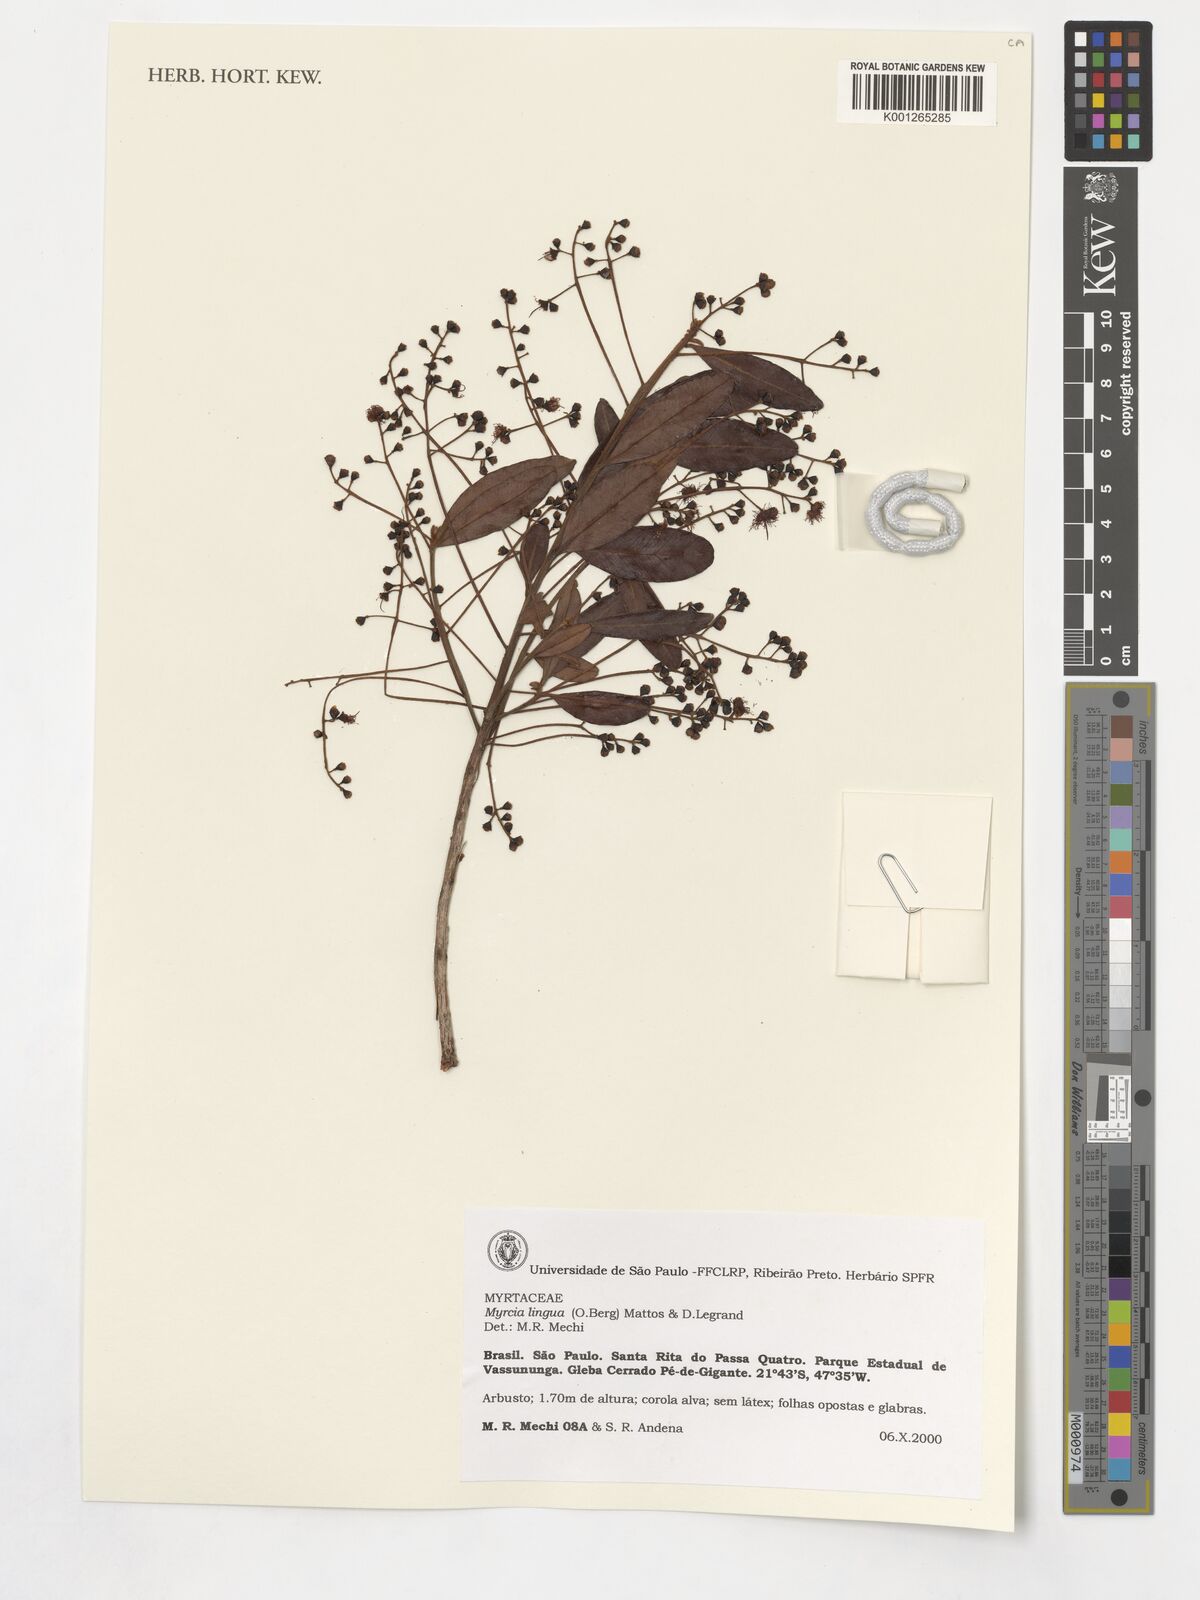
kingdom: Plantae
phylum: Tracheophyta
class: Magnoliopsida
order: Myrtales
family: Myrtaceae
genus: Myrcia
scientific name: Myrcia guianensis
